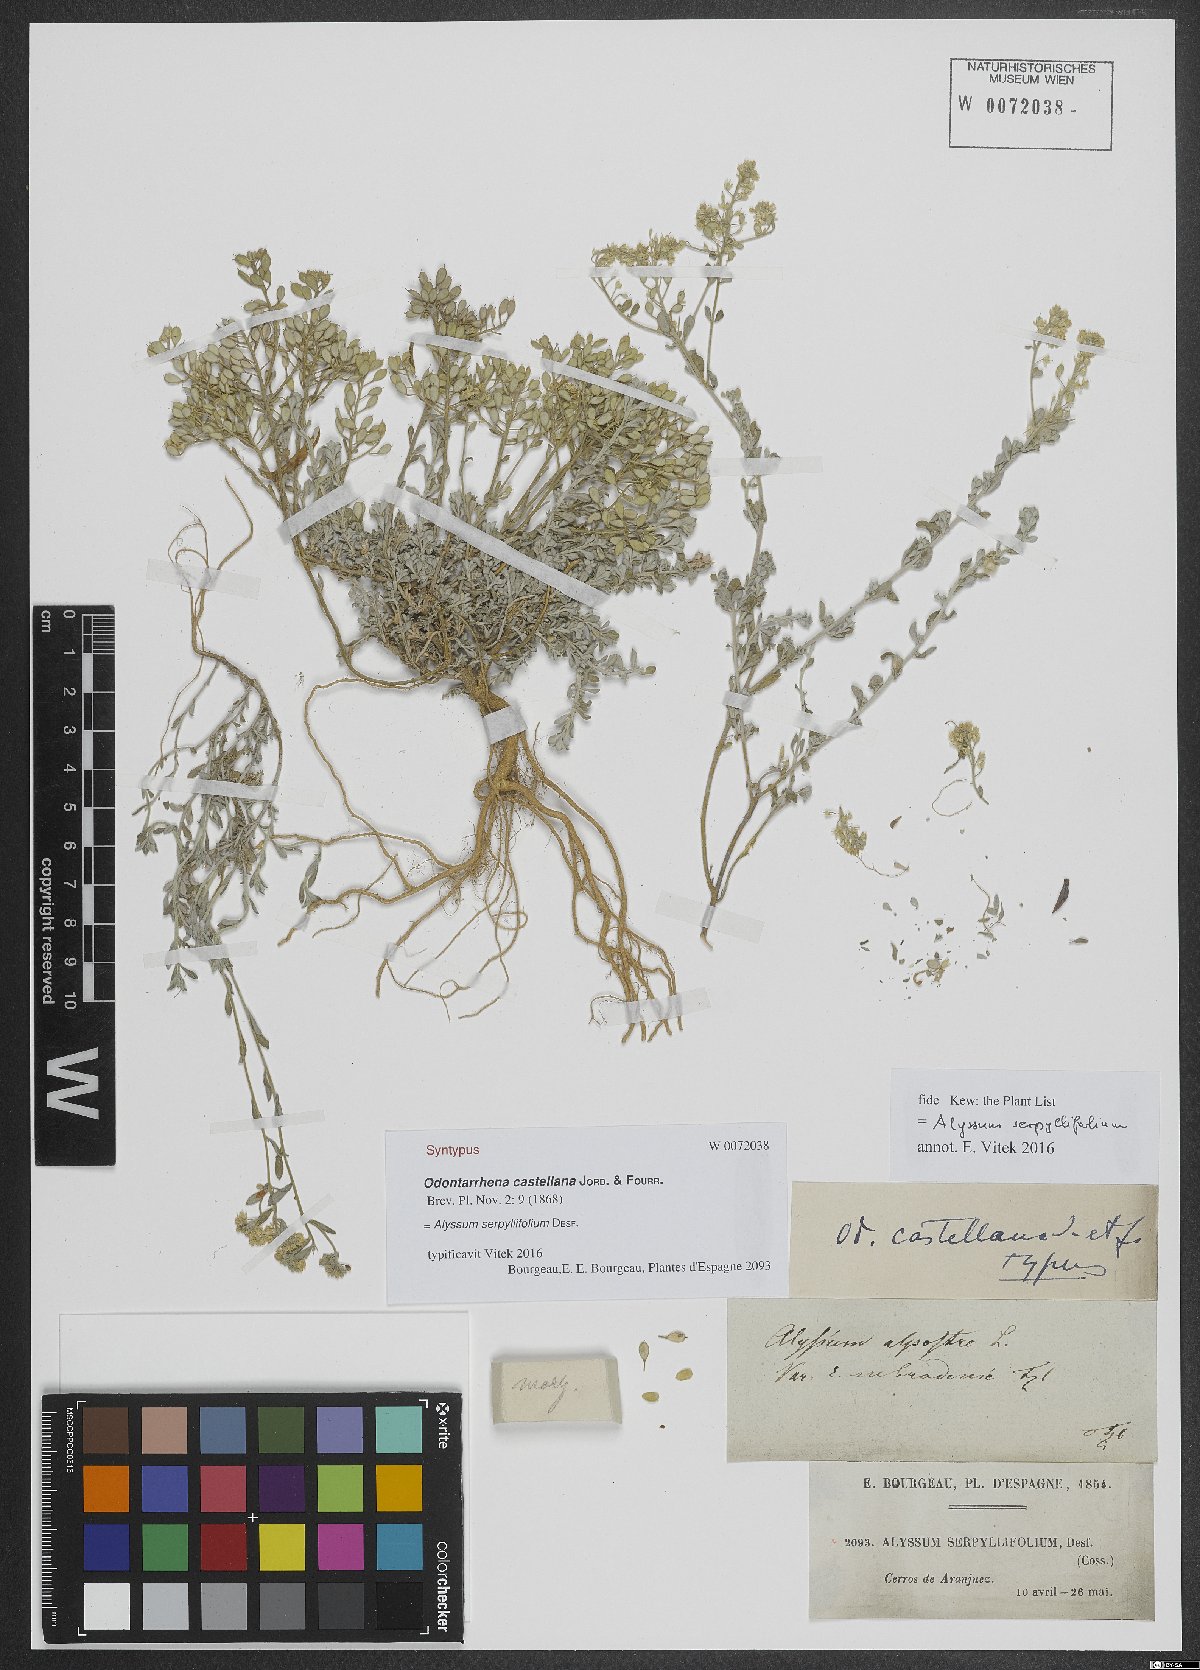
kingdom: Plantae
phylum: Tracheophyta
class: Magnoliopsida
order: Brassicales
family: Brassicaceae
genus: Odontarrhena
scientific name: Odontarrhena serpyllifolia
